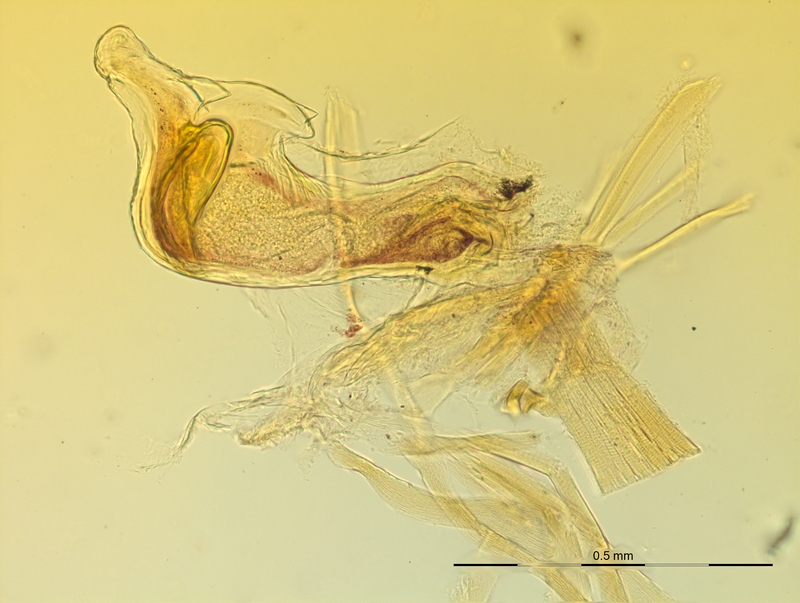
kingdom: Animalia
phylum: Arthropoda
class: Diplopoda
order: Chordeumatida
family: Craspedosomatidae
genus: Craspedosoma
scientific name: Craspedosoma transsilvanicum
